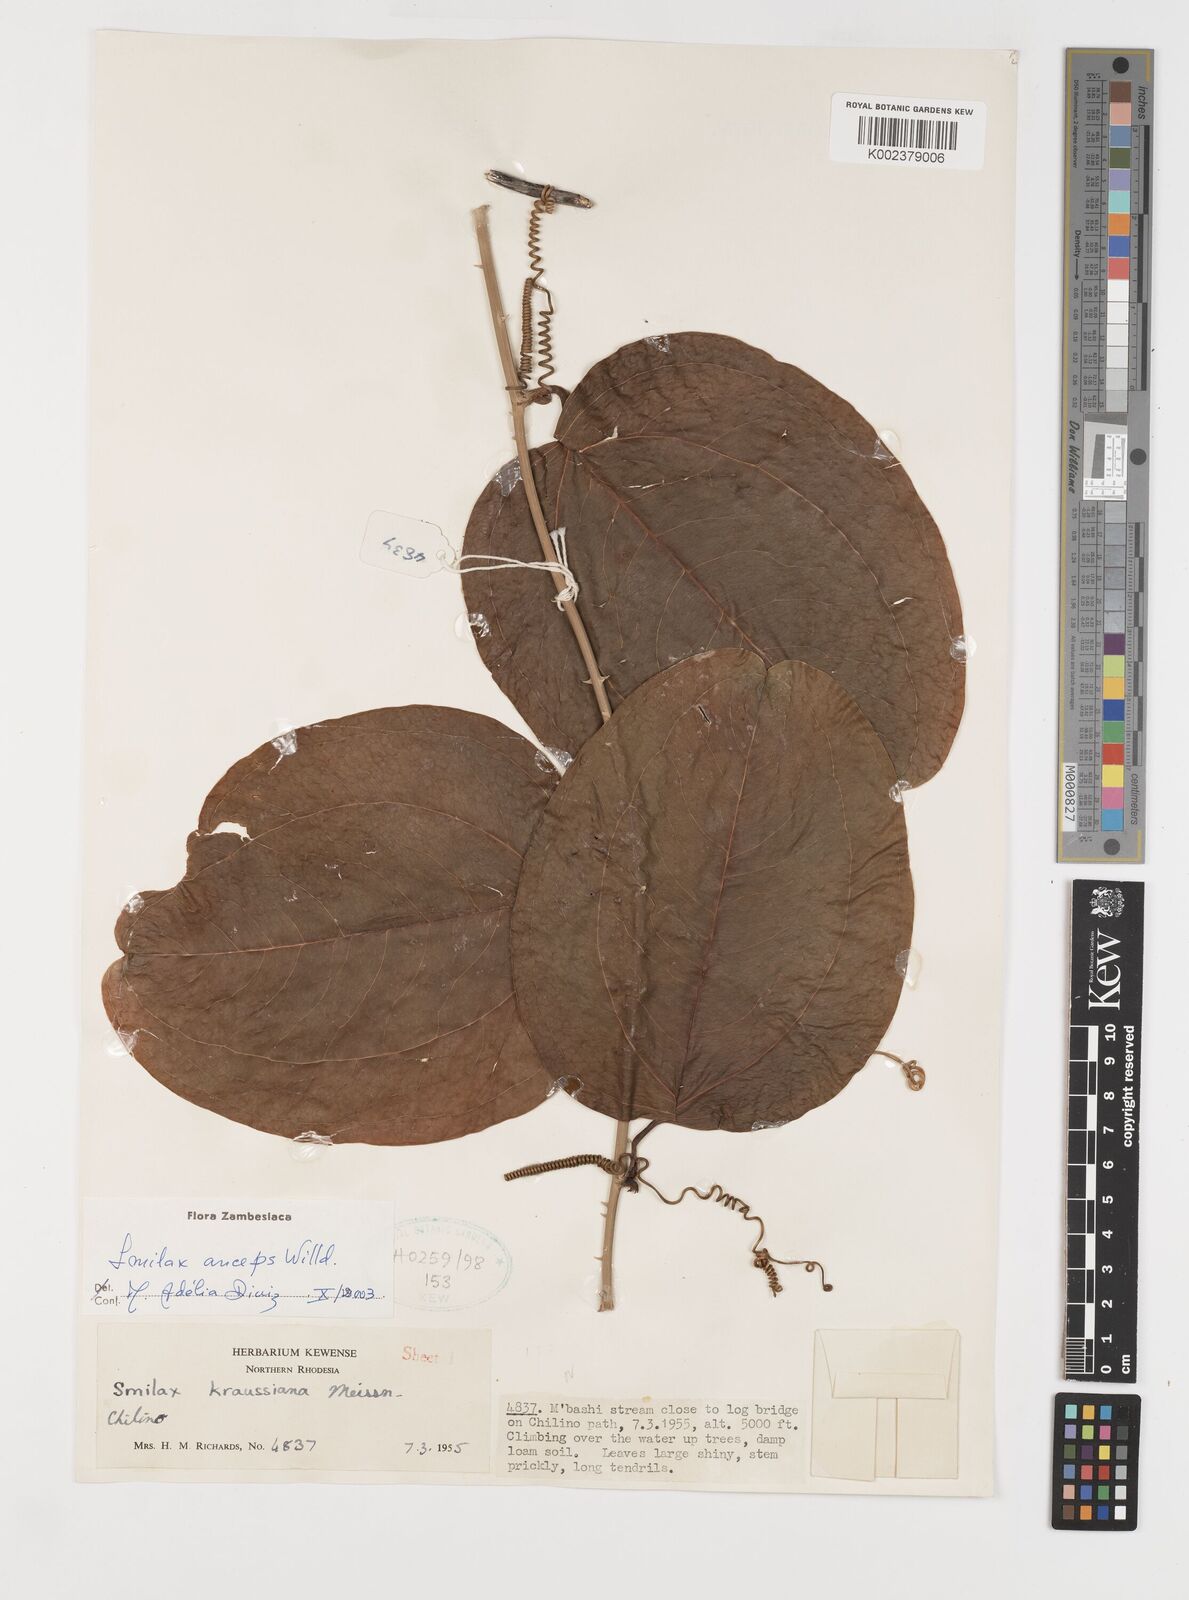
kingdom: Plantae
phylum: Tracheophyta
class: Liliopsida
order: Liliales
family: Smilacaceae
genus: Smilax
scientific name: Smilax anceps
